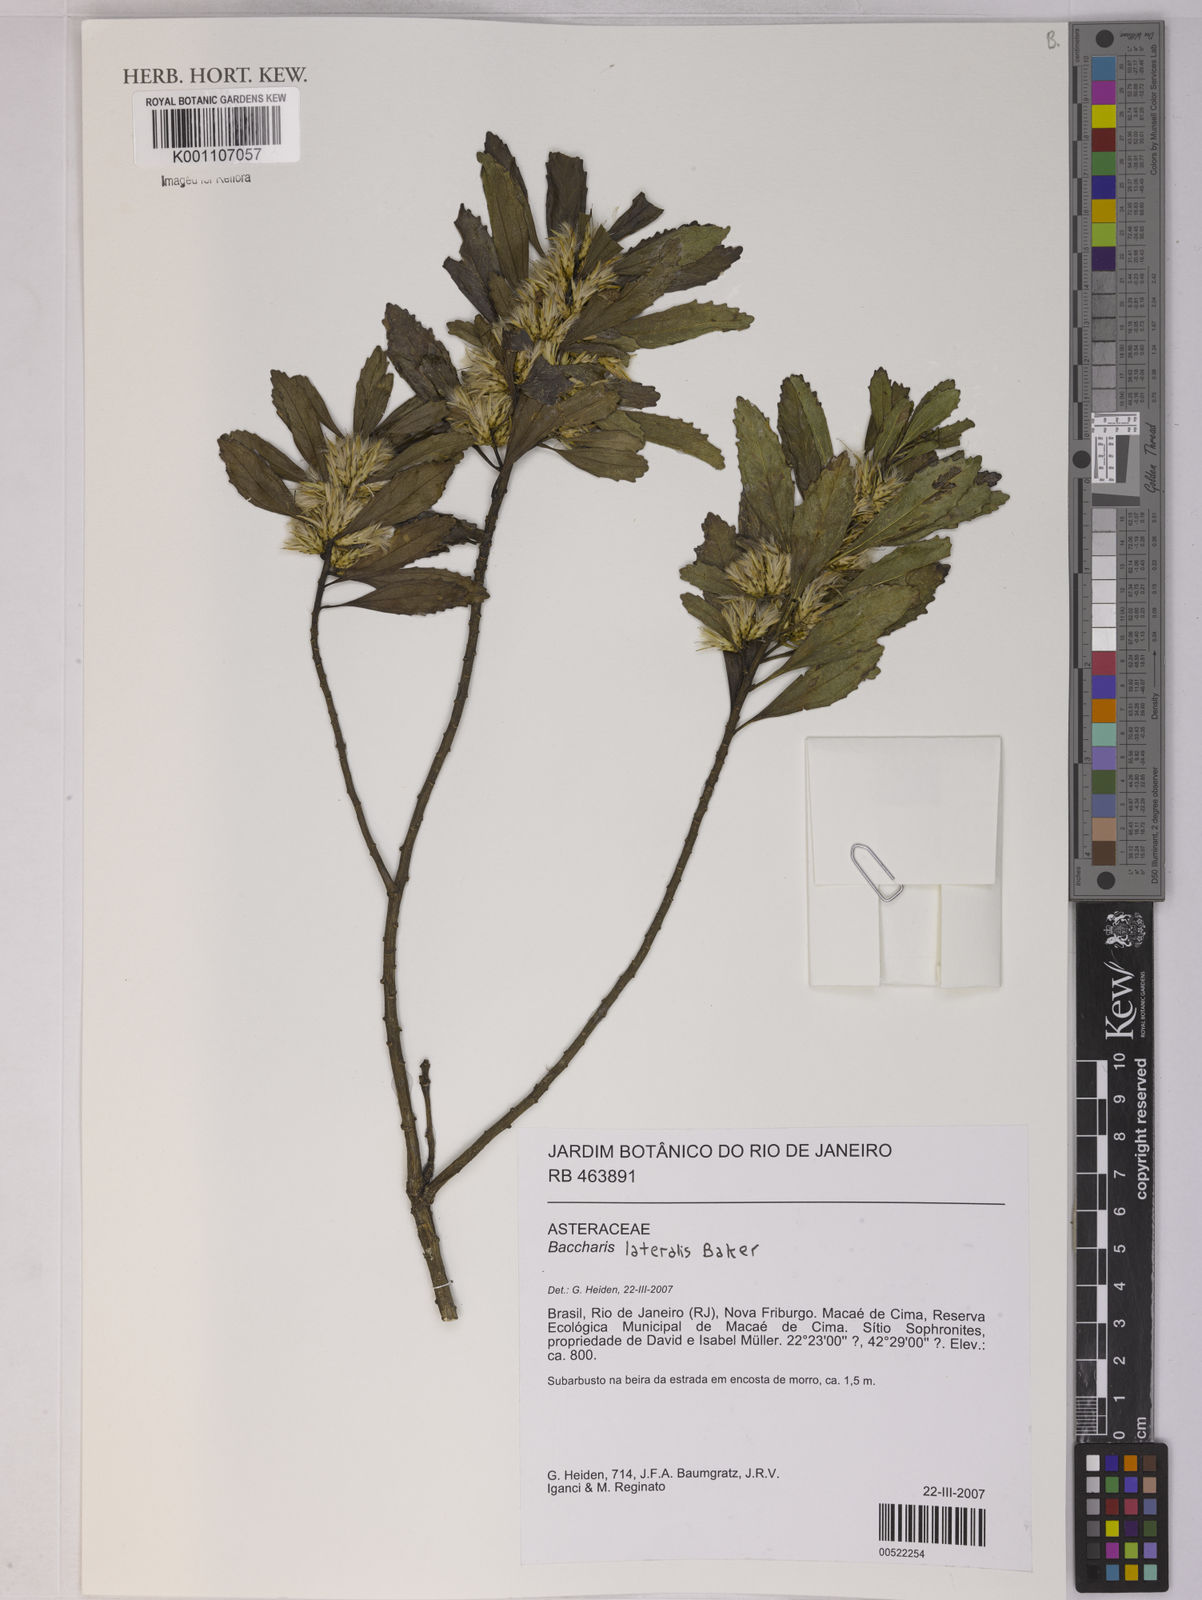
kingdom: Plantae
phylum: Tracheophyta
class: Magnoliopsida
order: Asterales
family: Asteraceae
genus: Baccharis
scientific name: Baccharis lateralis
